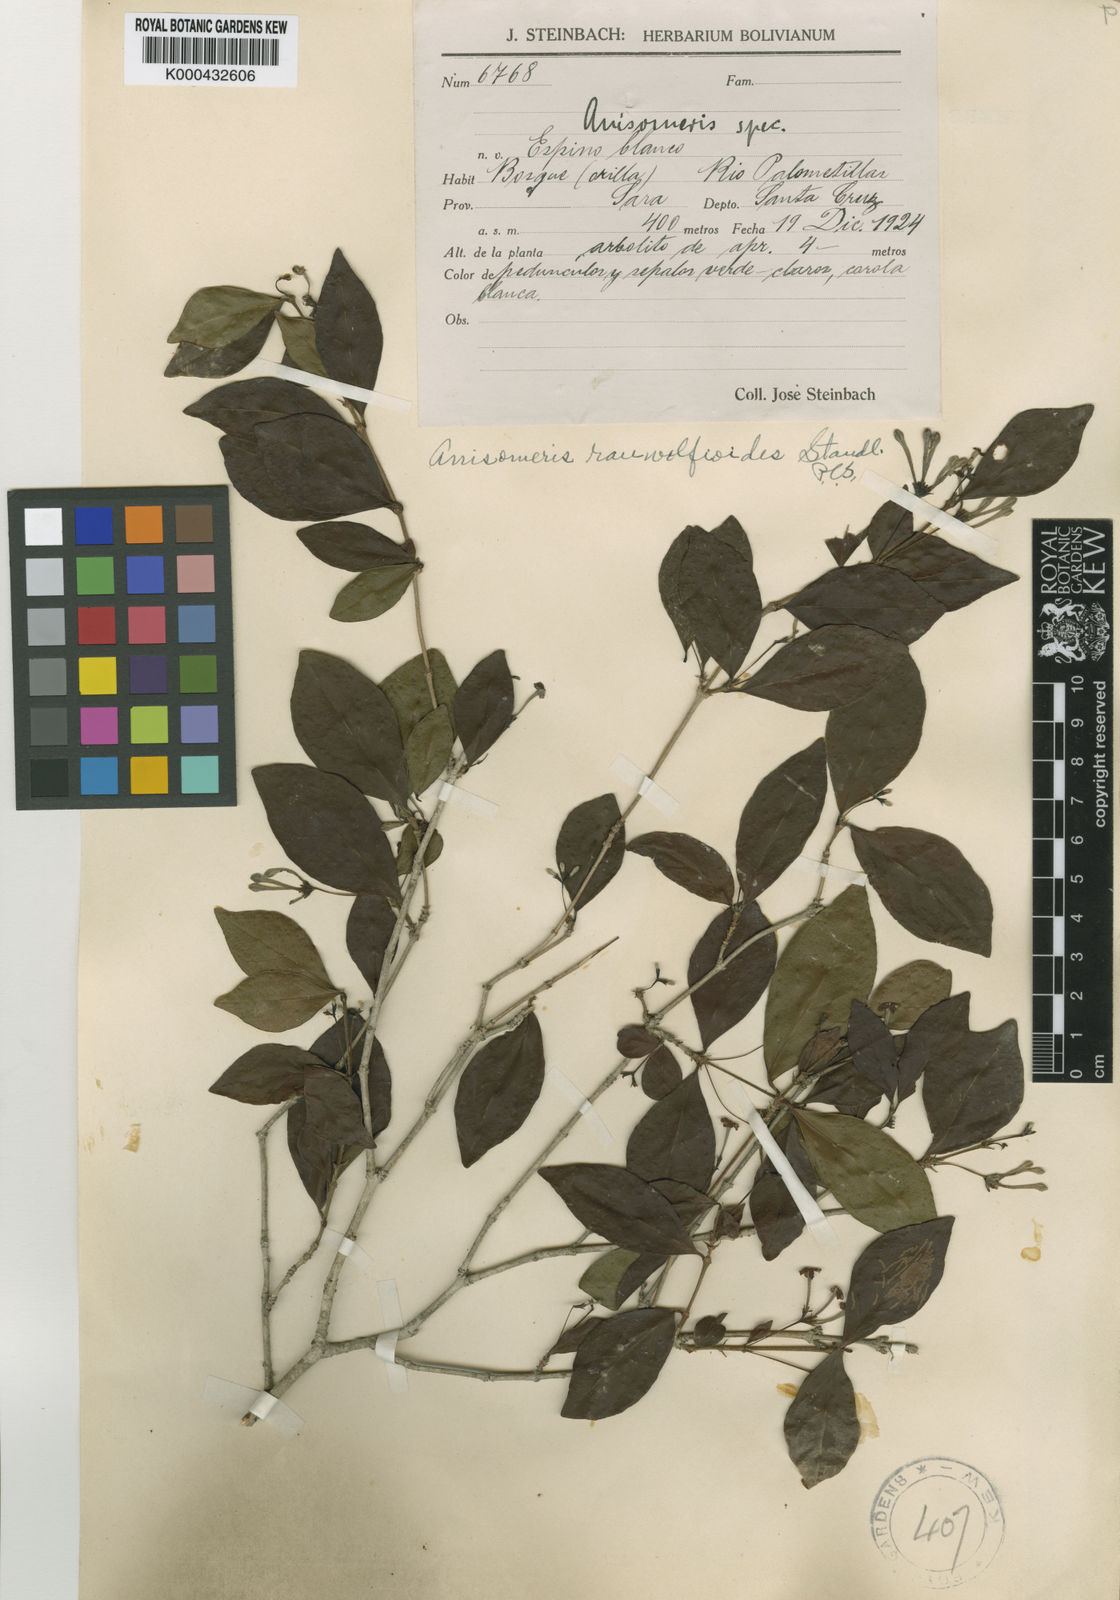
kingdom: Plantae
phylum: Tracheophyta
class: Magnoliopsida
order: Gentianales
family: Rubiaceae
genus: Chomelia
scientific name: Chomelia
